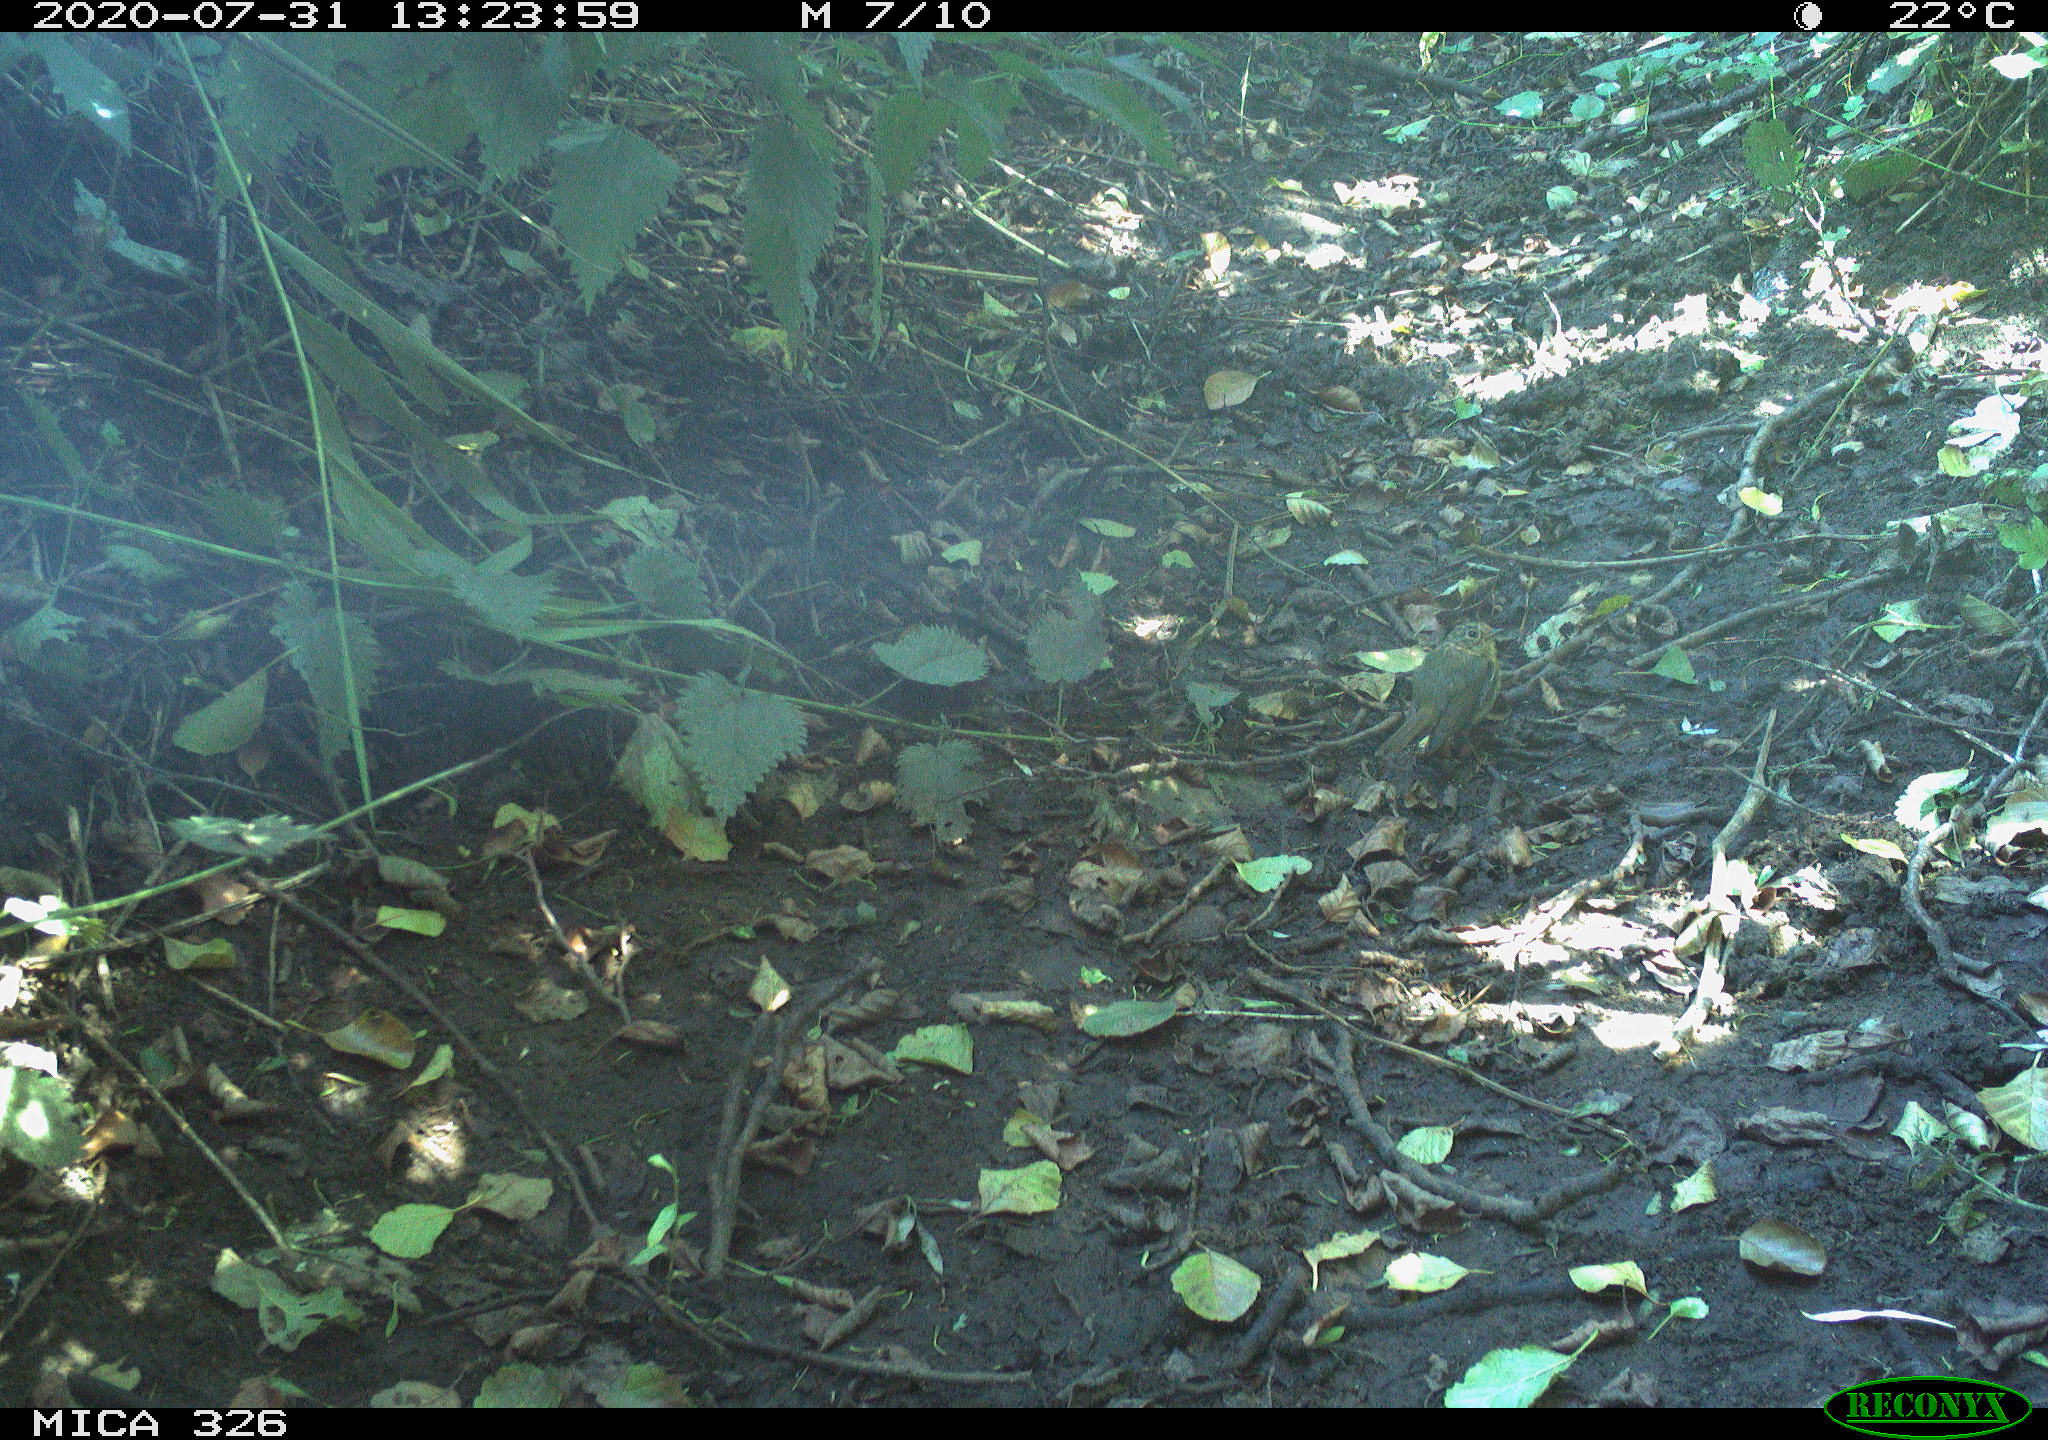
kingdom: Animalia
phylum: Chordata
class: Aves
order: Passeriformes
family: Muscicapidae
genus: Erithacus
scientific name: Erithacus rubecula
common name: European robin
